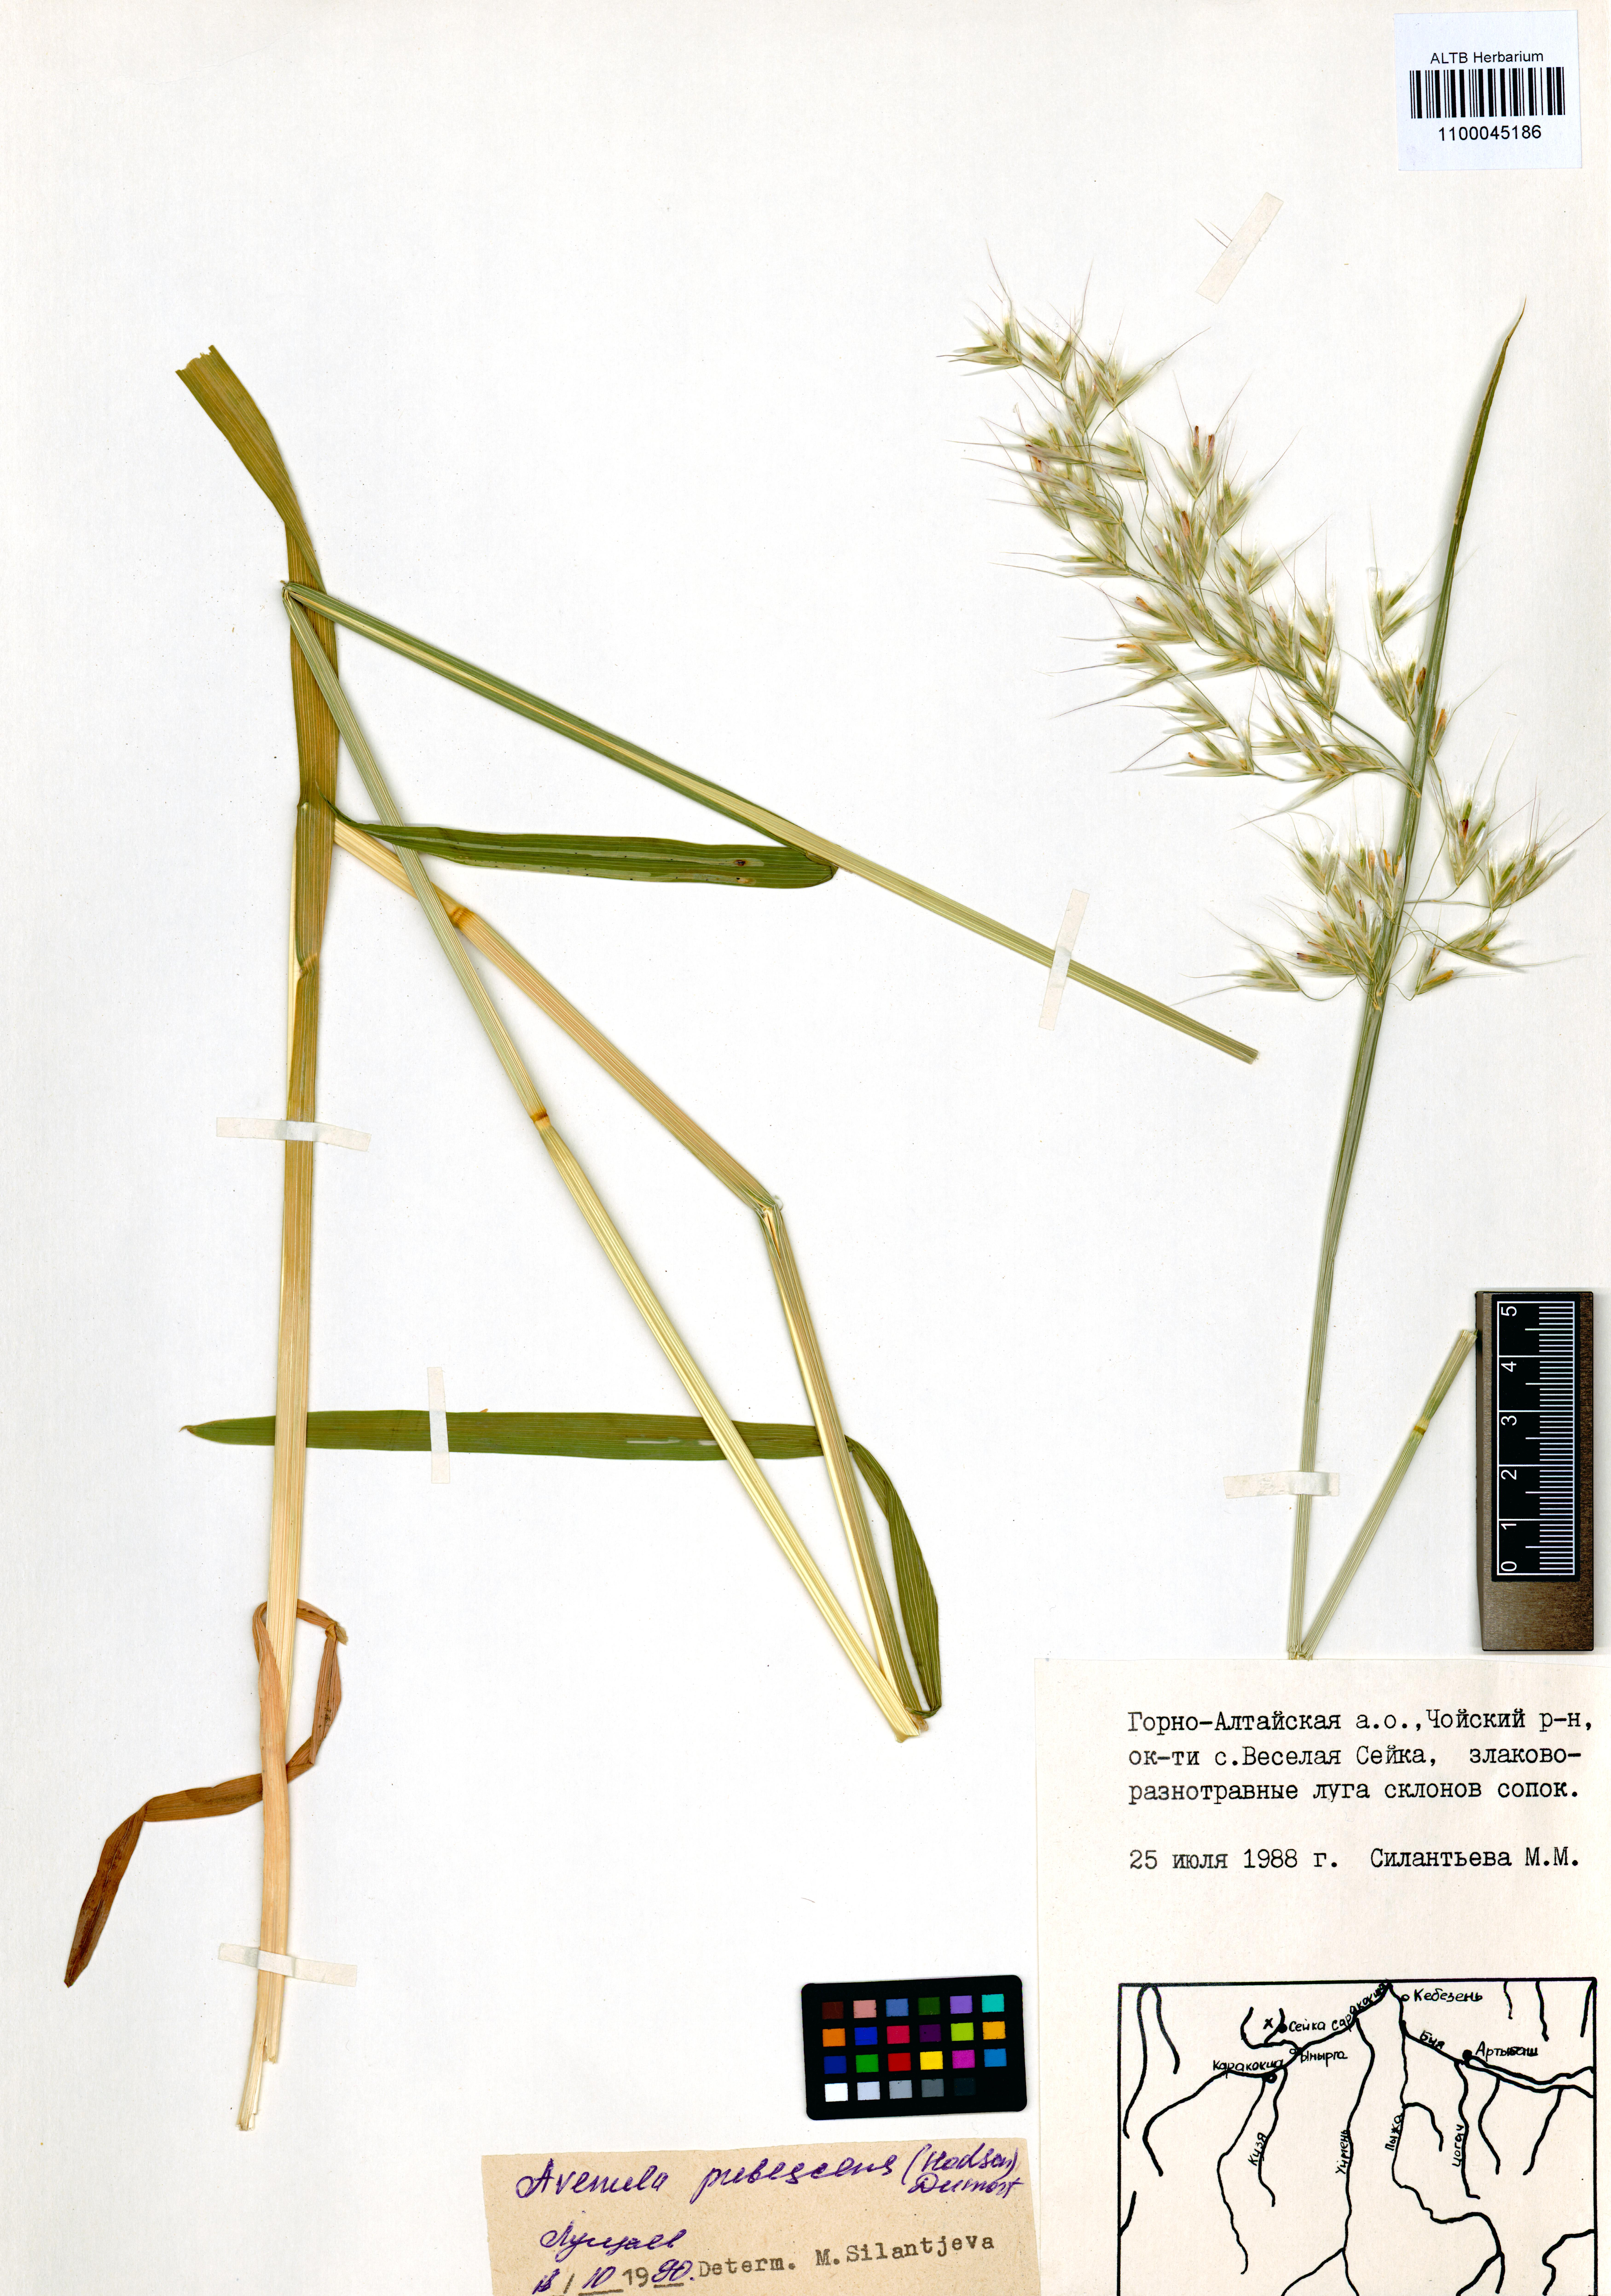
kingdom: Plantae
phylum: Tracheophyta
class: Liliopsida
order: Poales
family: Poaceae
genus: Avenula
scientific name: Avenula pubescens
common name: Downy alpine oatgrass
